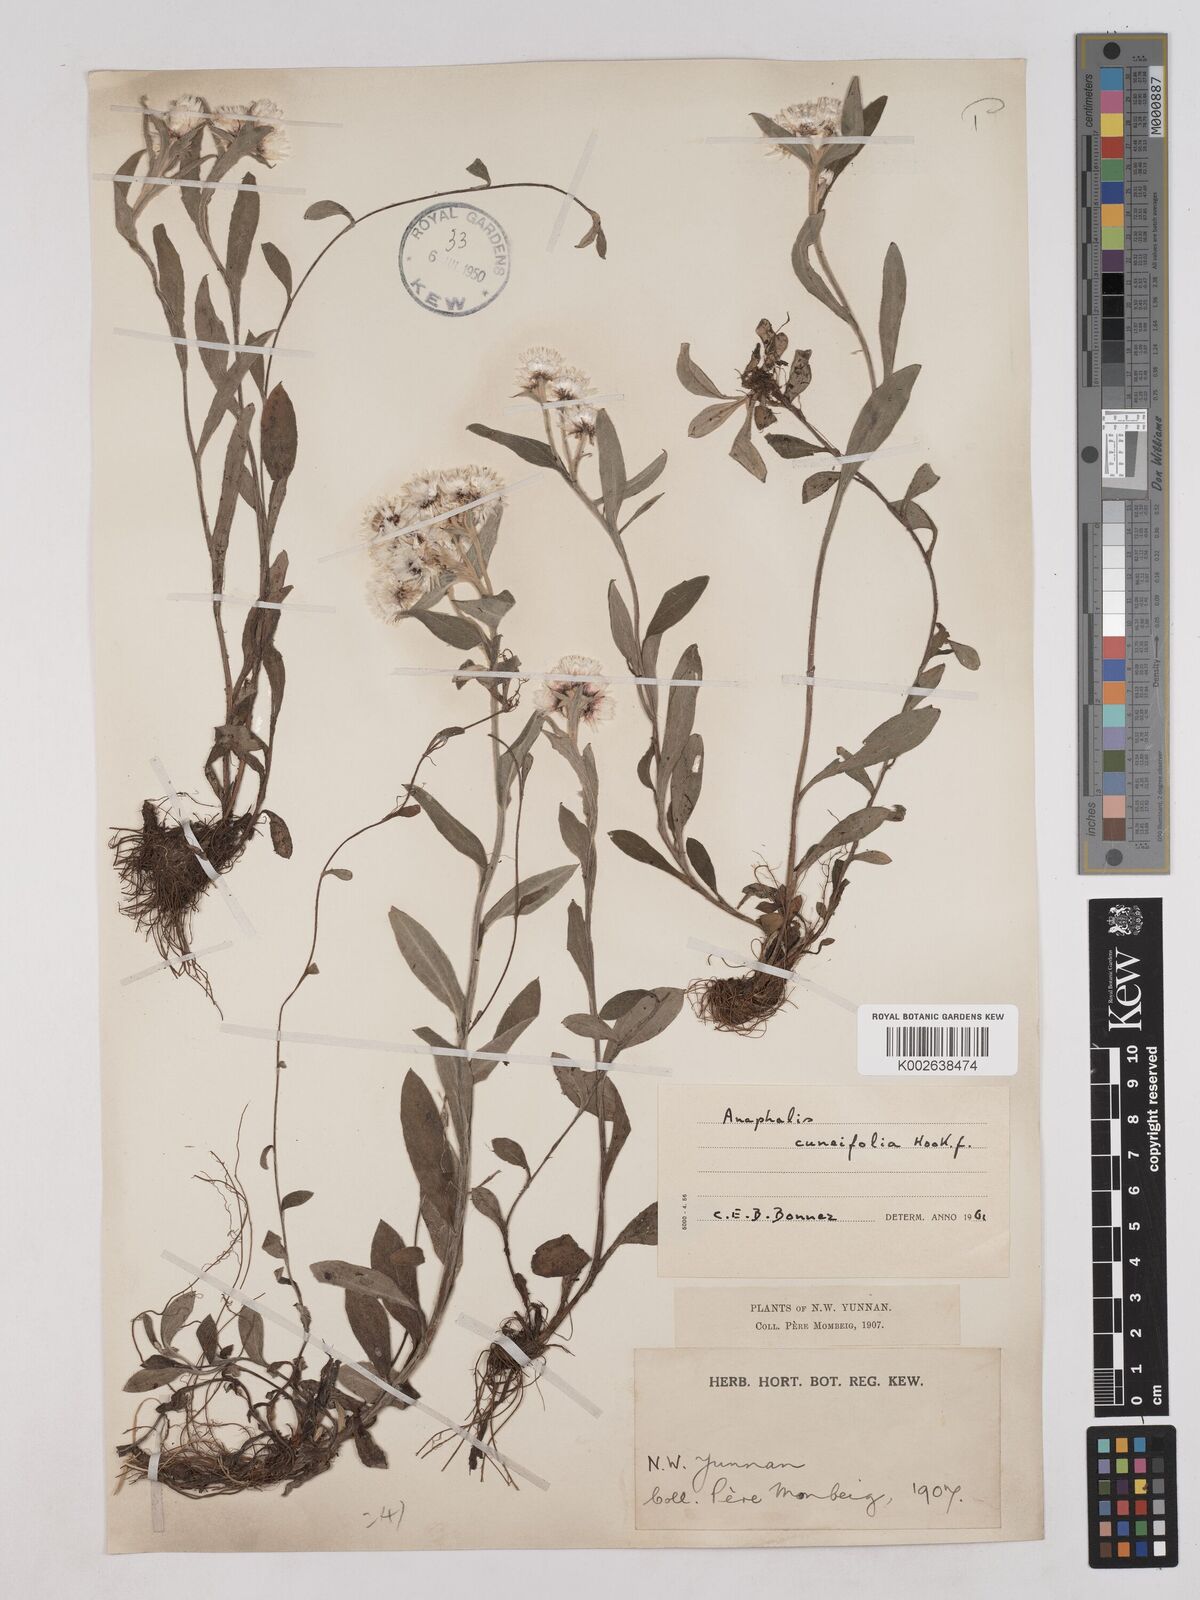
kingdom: Plantae
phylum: Tracheophyta
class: Magnoliopsida
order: Asterales
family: Asteraceae
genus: Anaphalis
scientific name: Anaphalis nepalensis
